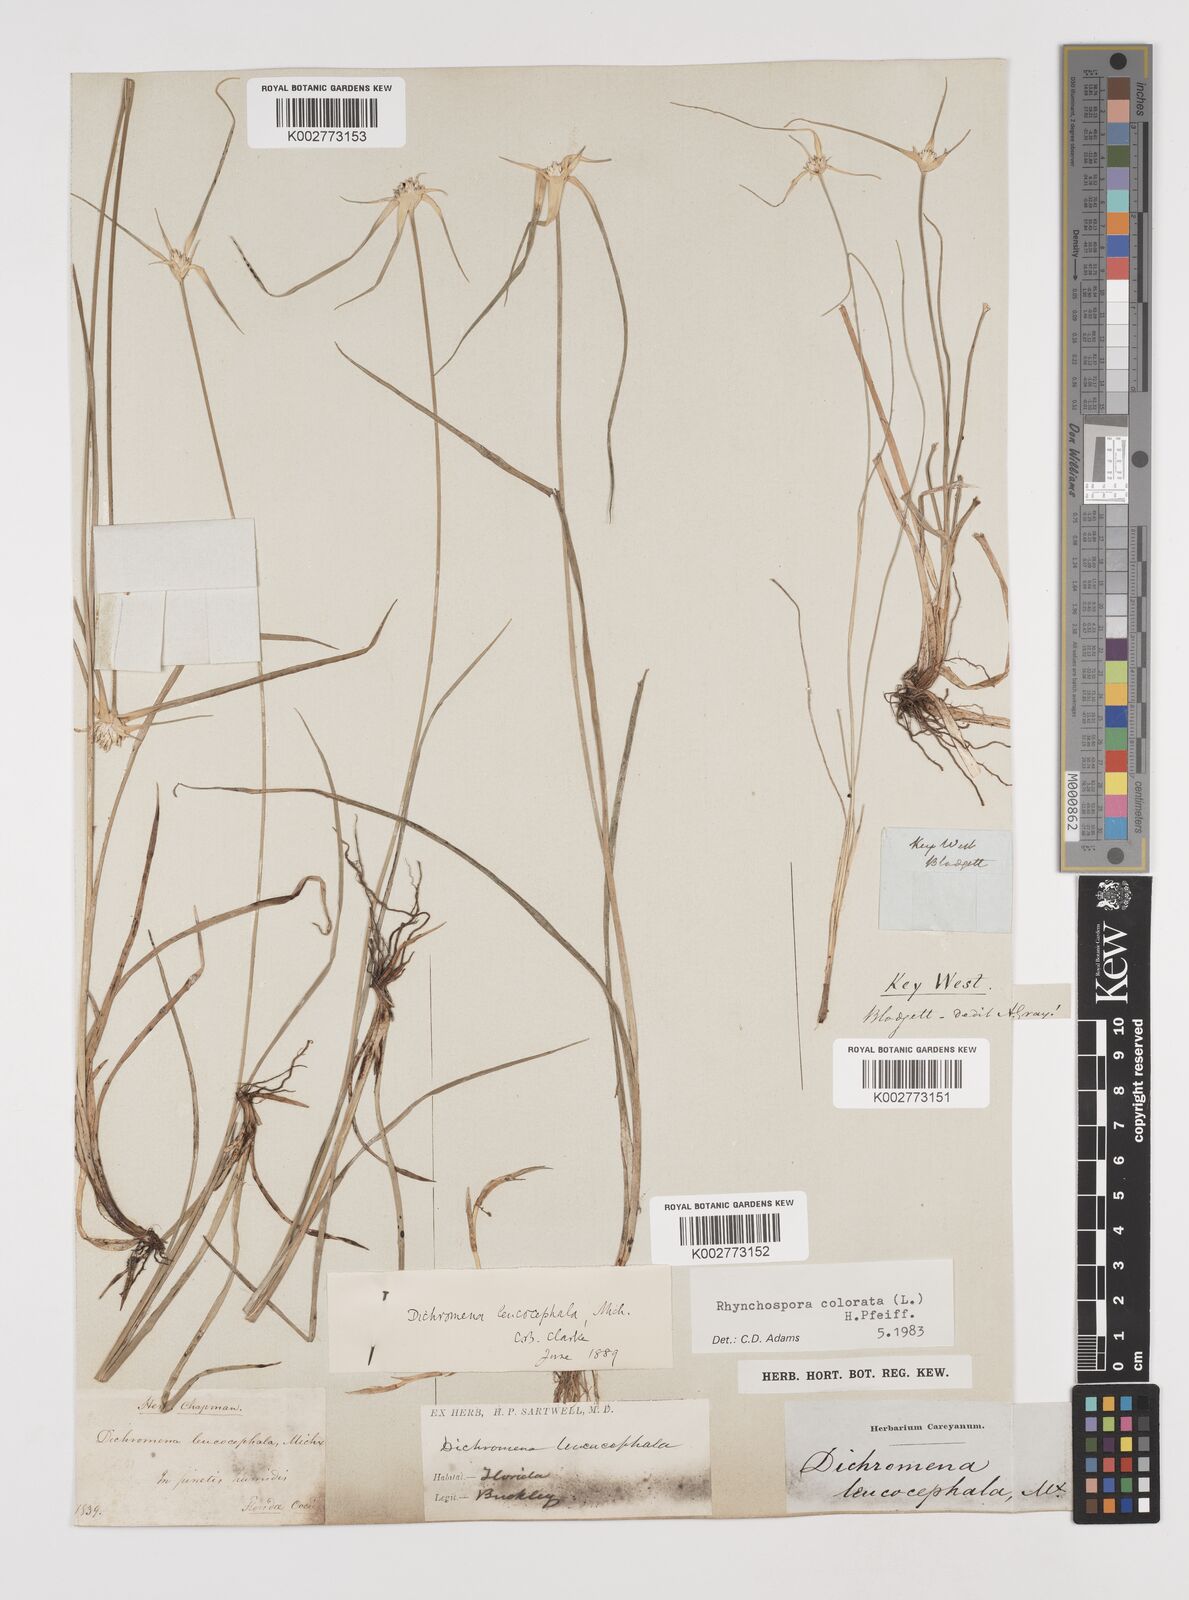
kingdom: Plantae
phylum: Tracheophyta
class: Liliopsida
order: Poales
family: Cyperaceae
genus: Rhynchospora
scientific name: Rhynchospora colorata
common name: Star sedge
